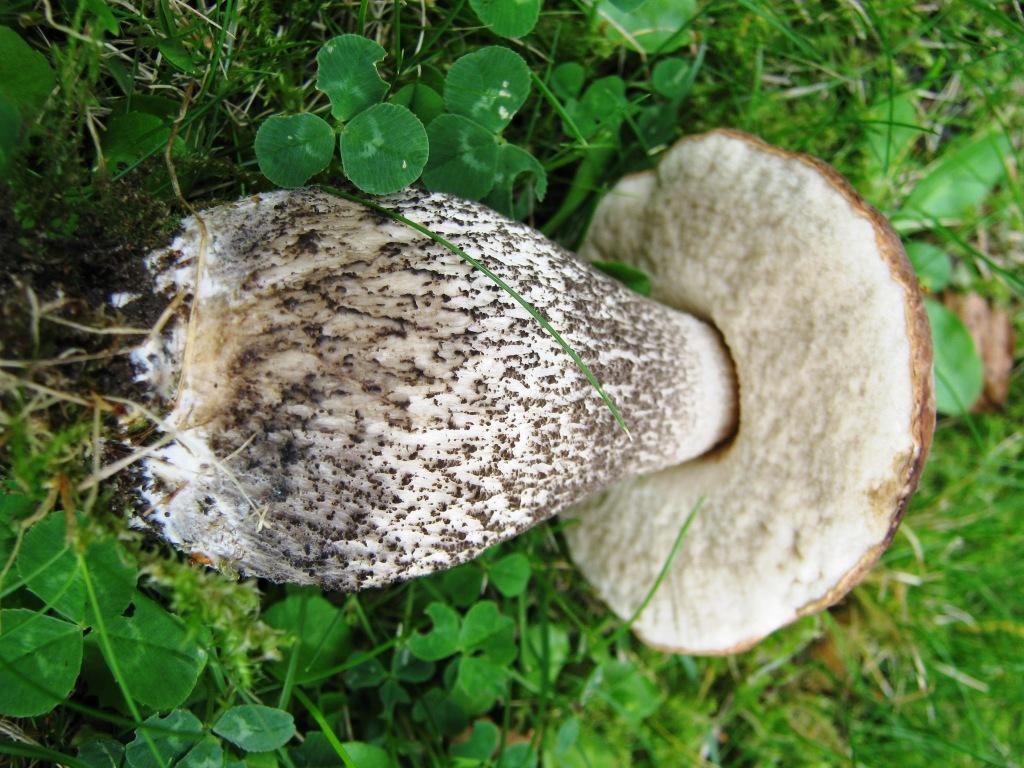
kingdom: Fungi
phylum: Basidiomycota
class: Agaricomycetes
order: Boletales
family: Boletaceae
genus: Leccinum
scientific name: Leccinum scabrum
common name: brun skælrørhat
